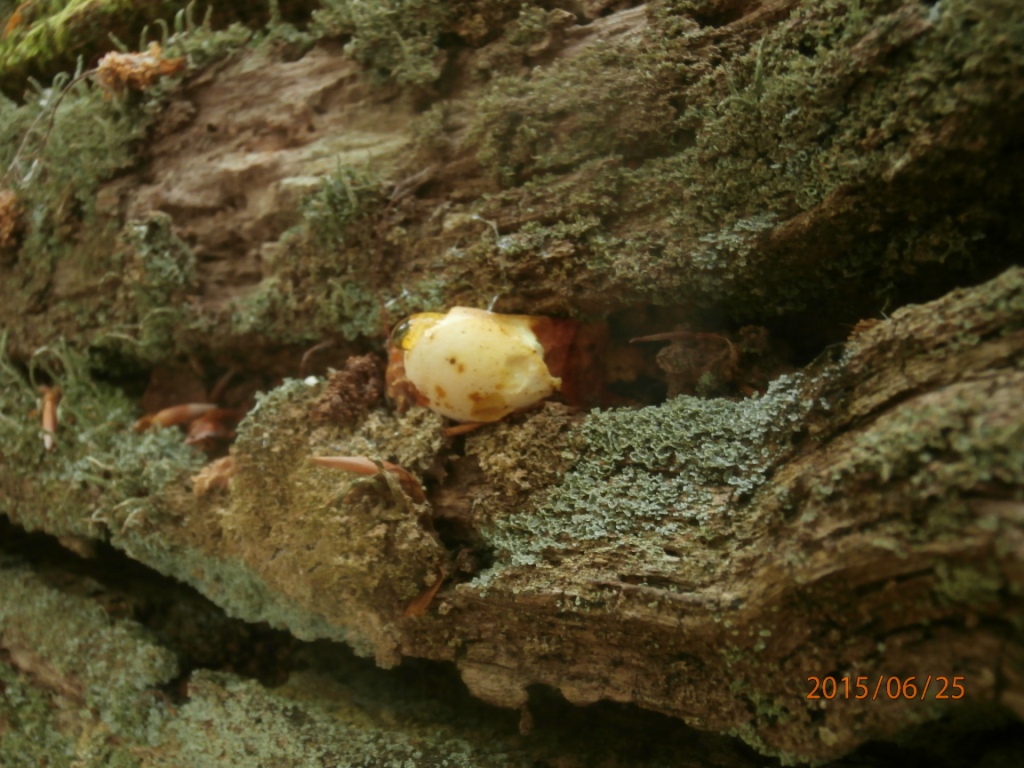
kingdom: Fungi
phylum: Basidiomycota
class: Agaricomycetes
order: Polyporales
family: Fomitopsidaceae
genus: Buglossoporus
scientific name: Buglossoporus quercinus
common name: egetunge
